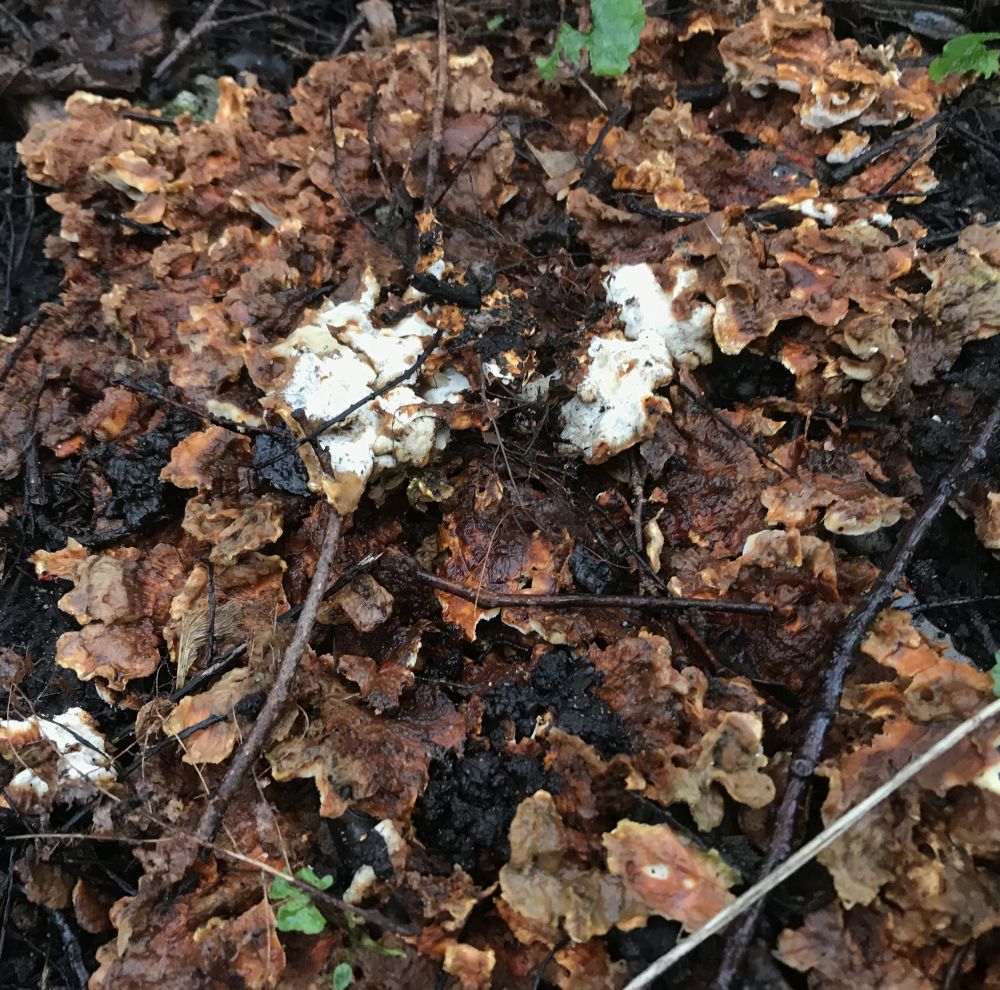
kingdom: Fungi
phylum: Basidiomycota
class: Agaricomycetes
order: Polyporales
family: Steccherinaceae
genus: Loweomyces
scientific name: Loweomyces wynneae
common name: krybende blødporesvamp
